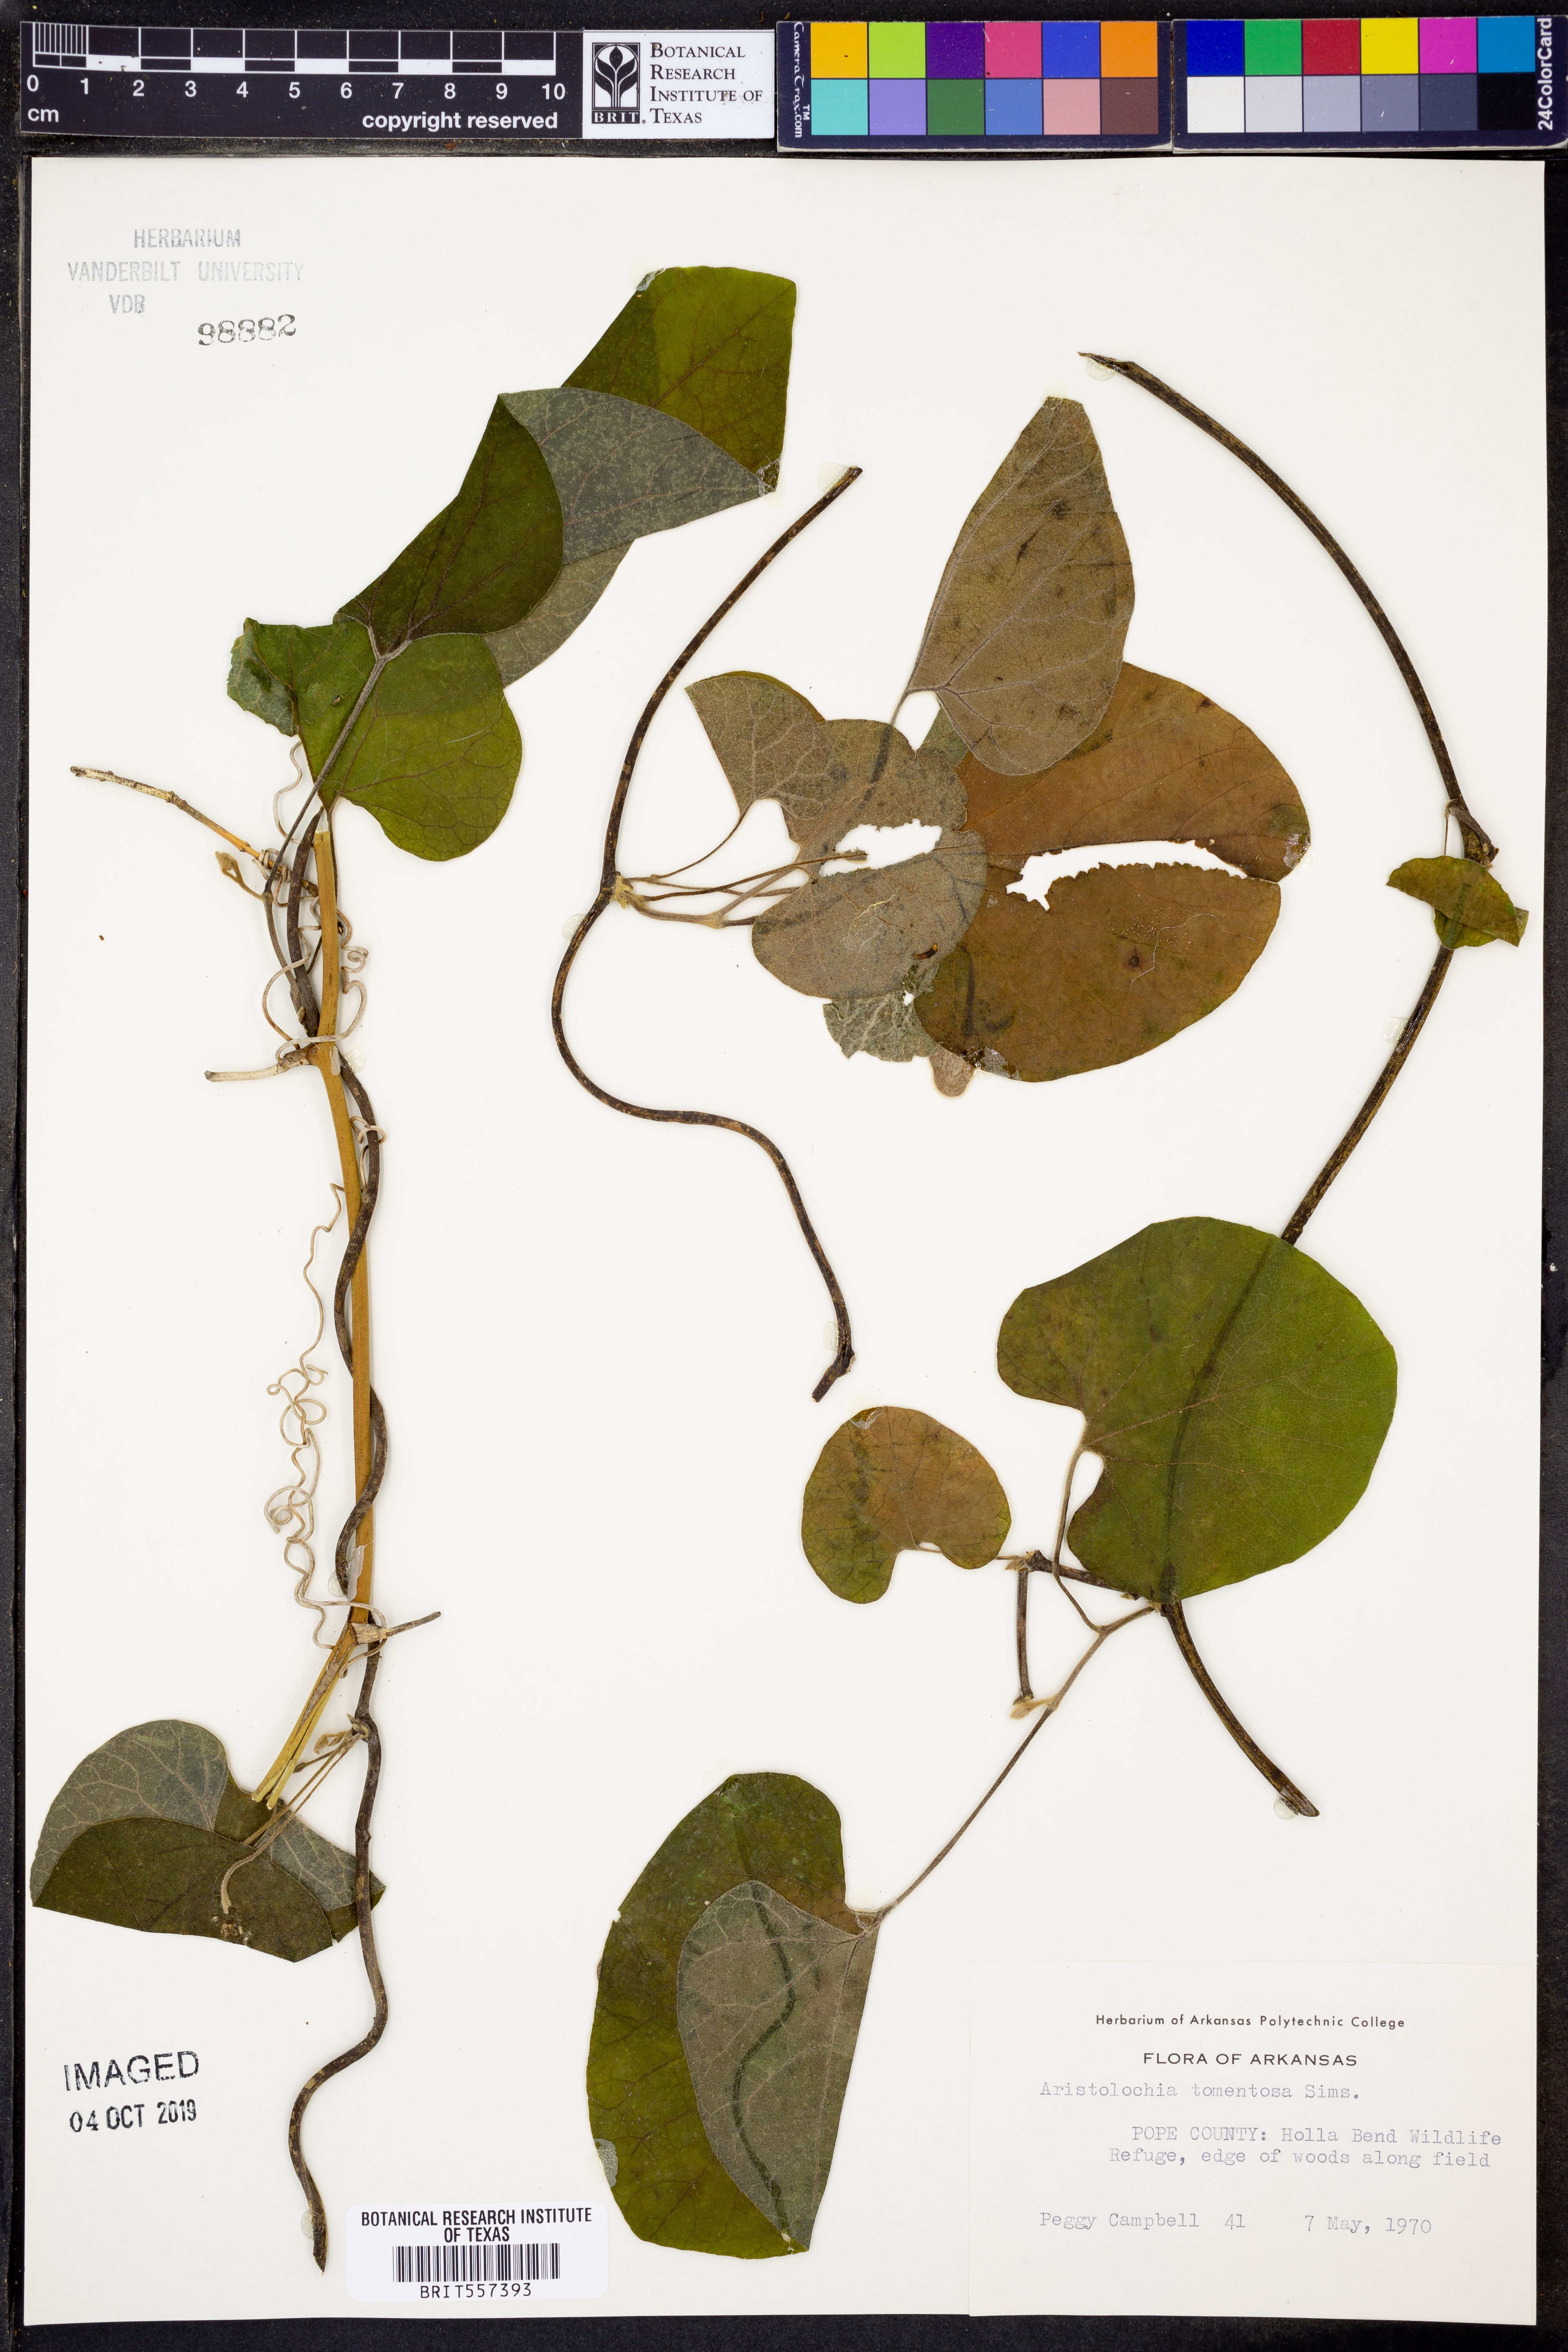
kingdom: Plantae
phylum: Tracheophyta
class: Magnoliopsida
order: Piperales
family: Aristolochiaceae
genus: Isotrema
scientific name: Isotrema tomentosum
